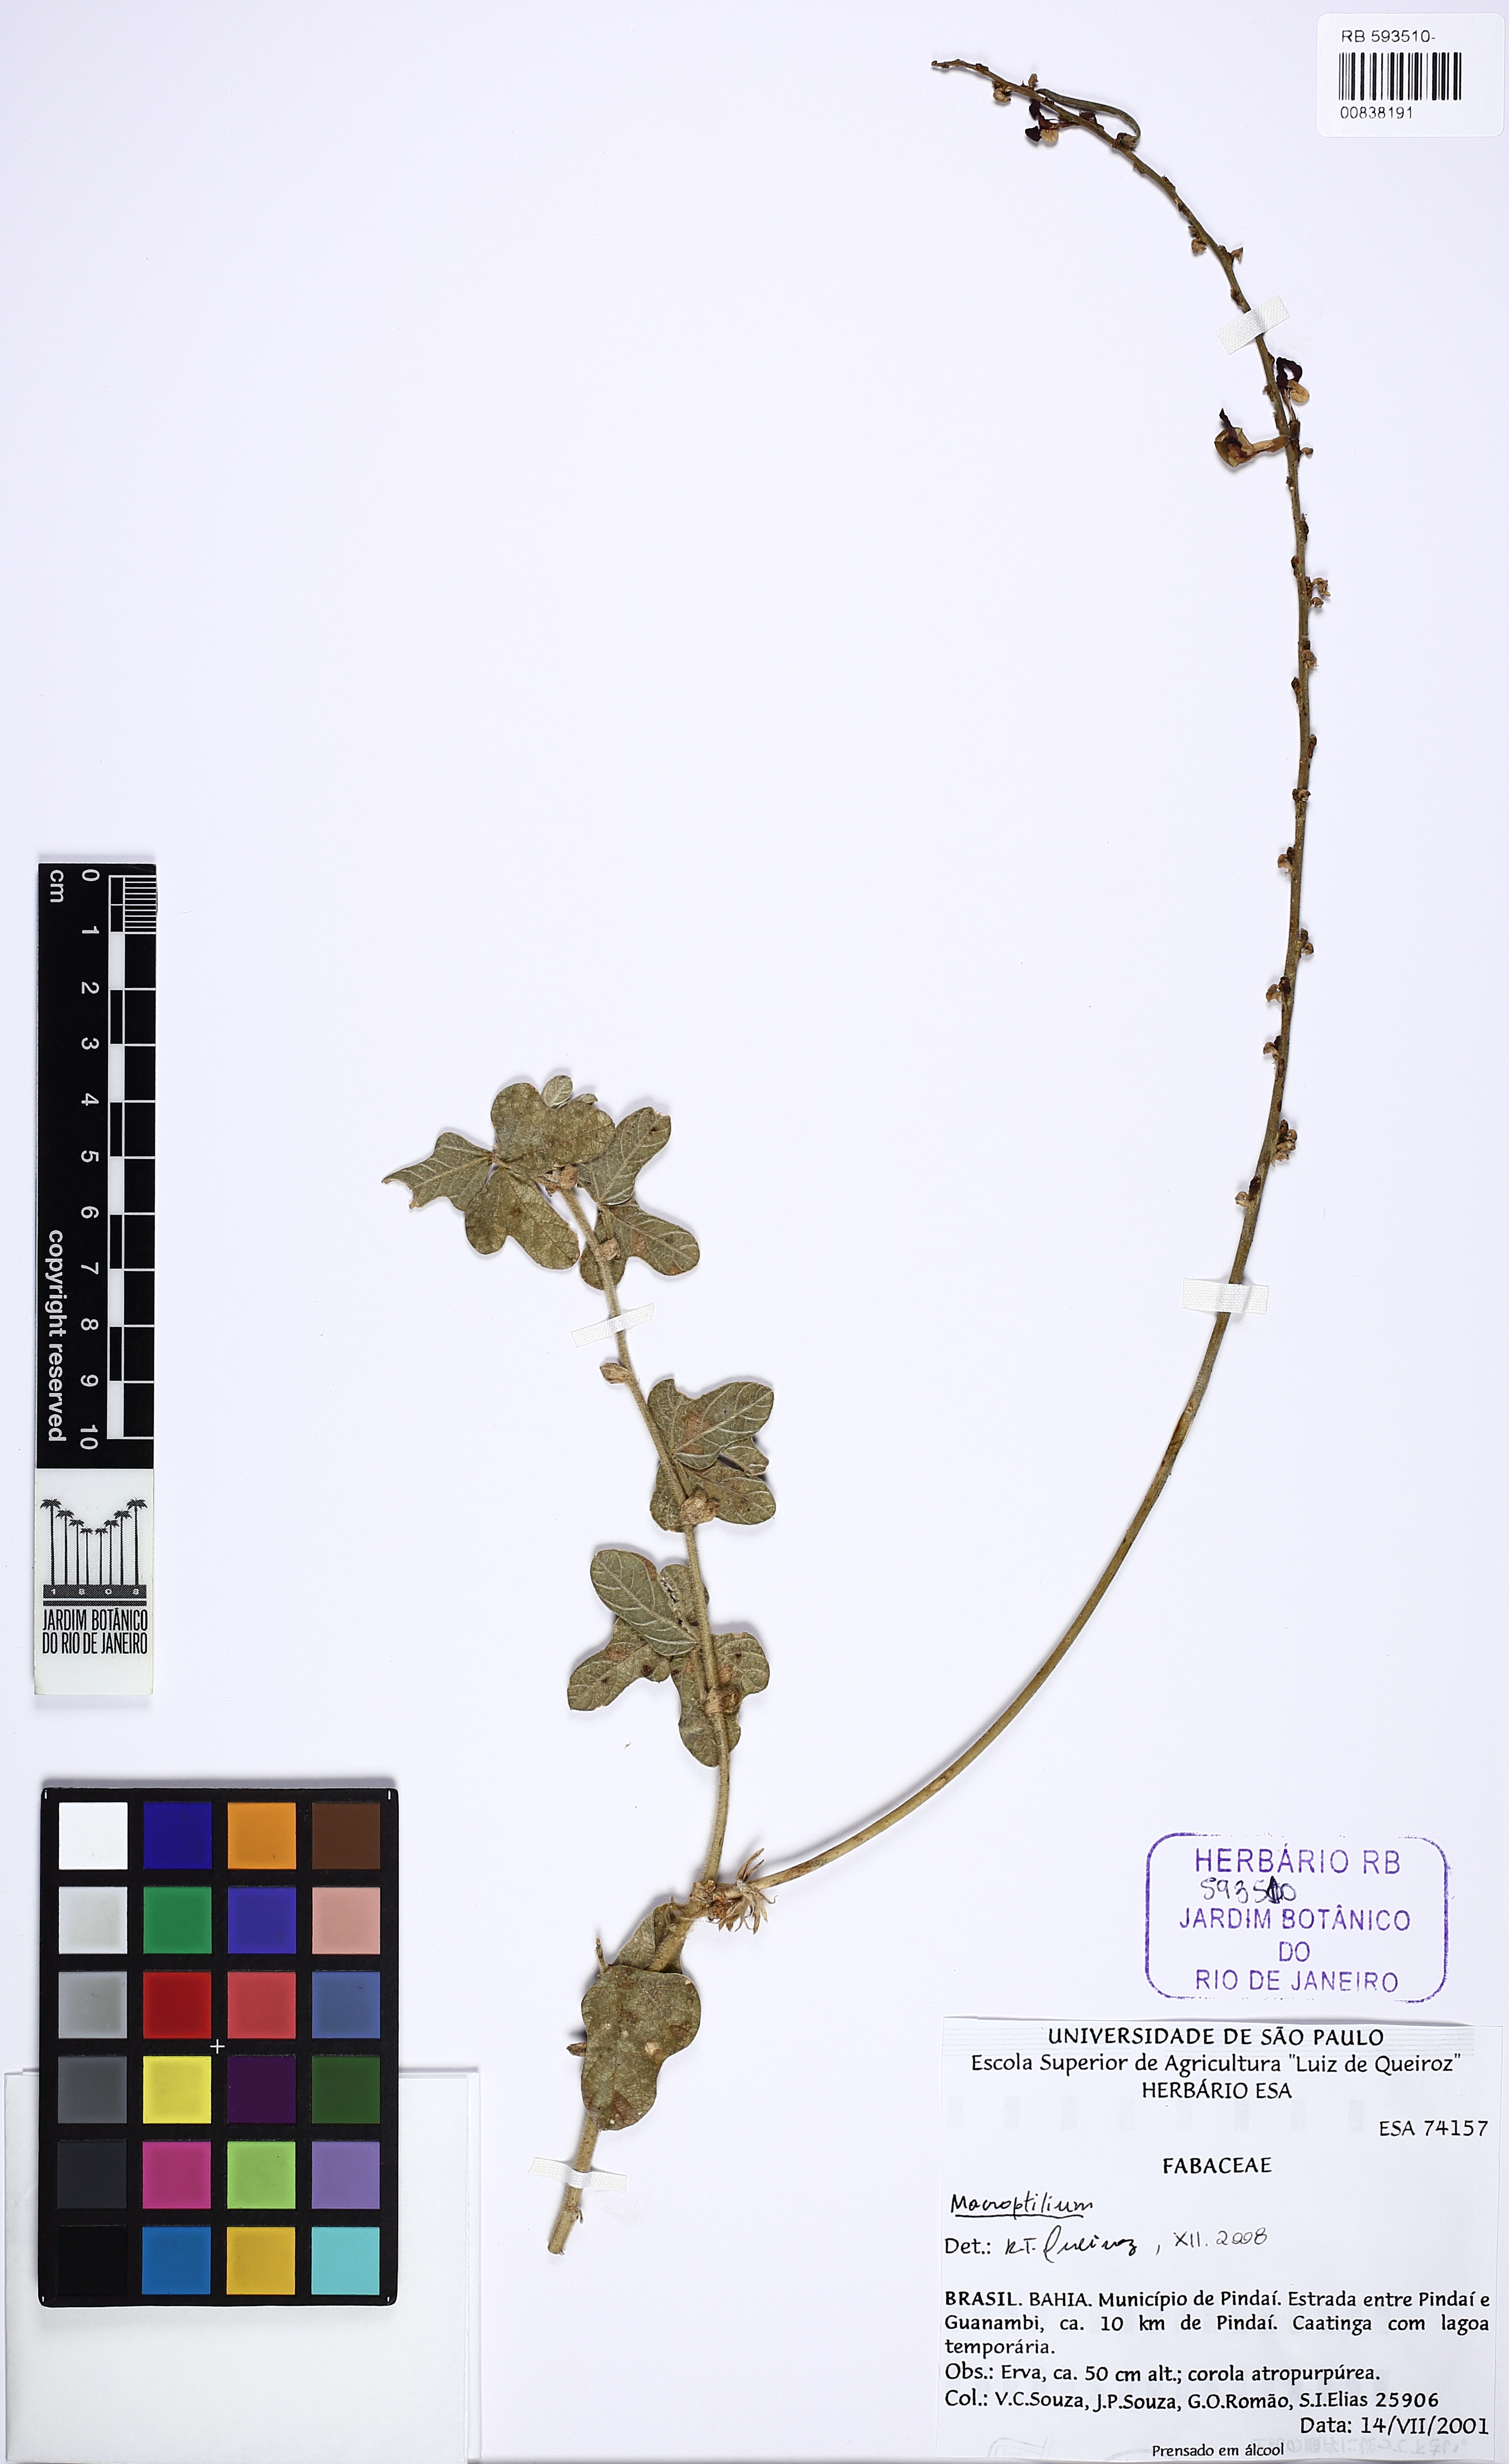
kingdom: Plantae
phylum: Tracheophyta
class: Magnoliopsida
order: Fabales
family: Fabaceae
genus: Macroptilium
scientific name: Macroptilium bracteatum
